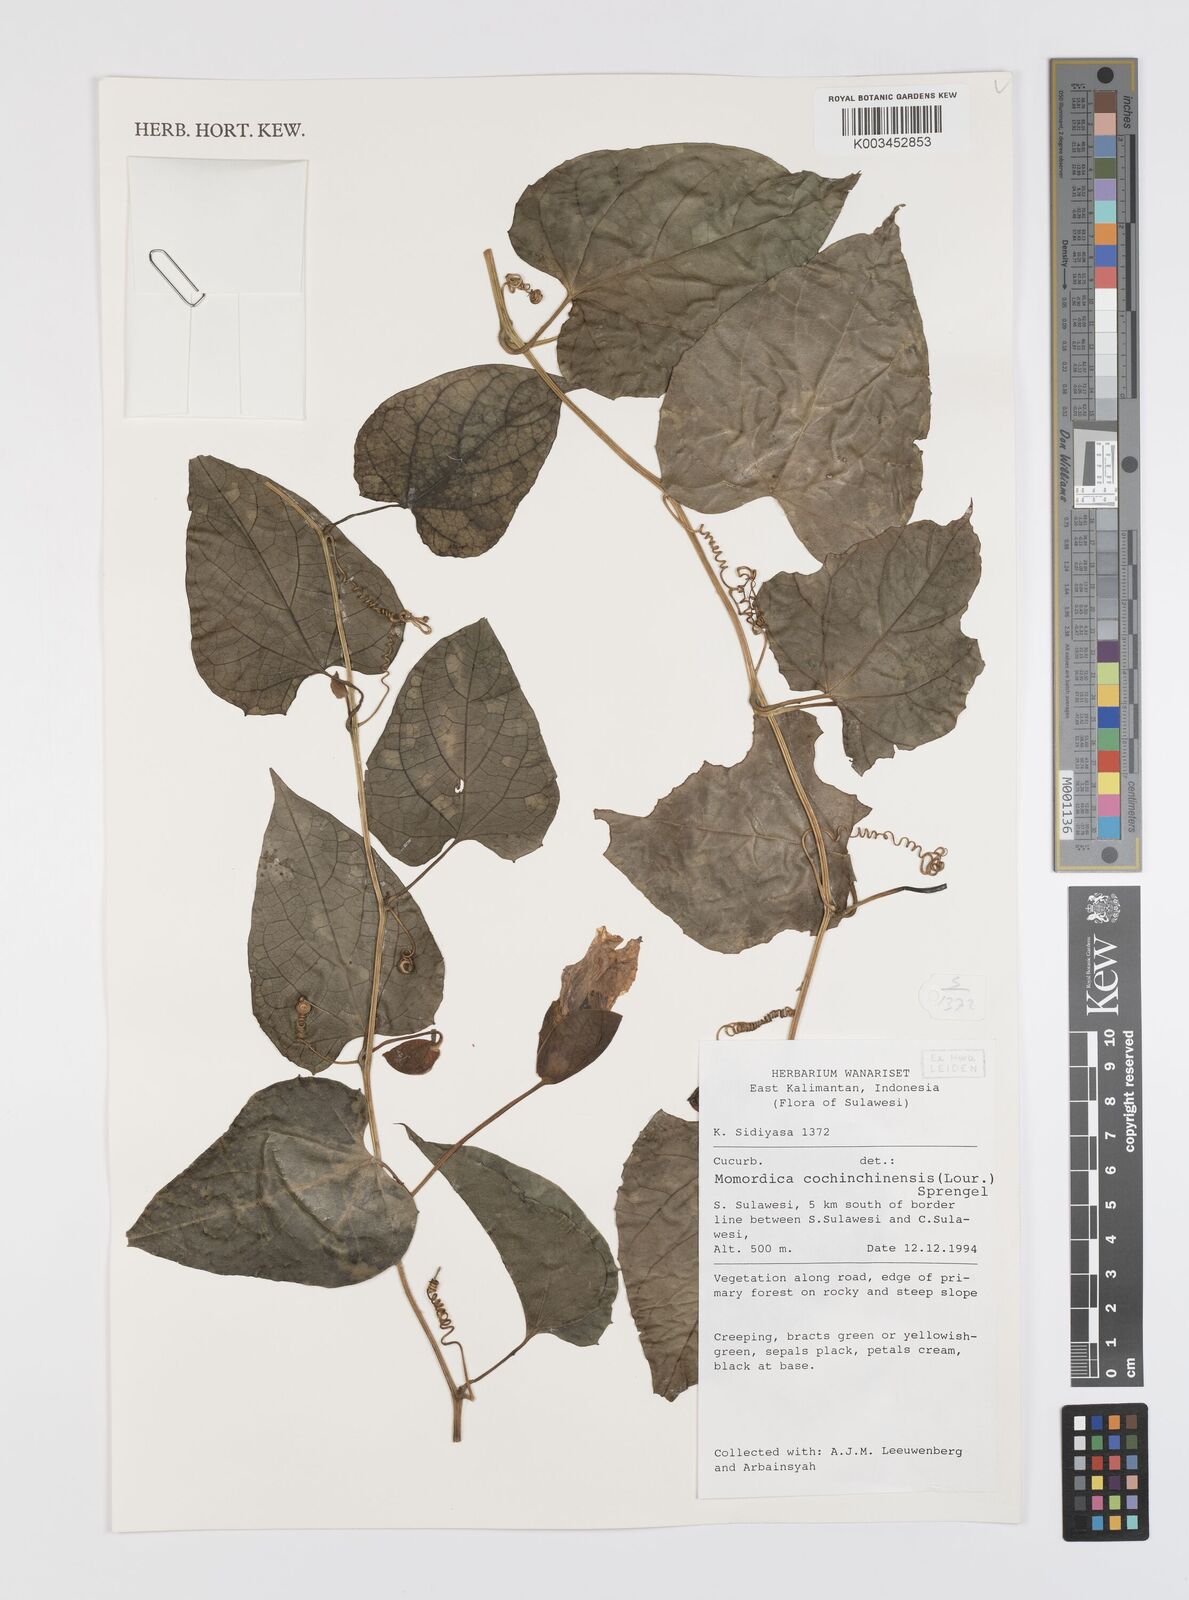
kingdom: Plantae
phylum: Tracheophyta
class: Magnoliopsida
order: Cucurbitales
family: Cucurbitaceae
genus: Momordica
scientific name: Momordica cochinchinensis
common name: Chinese bitter-cucumber
